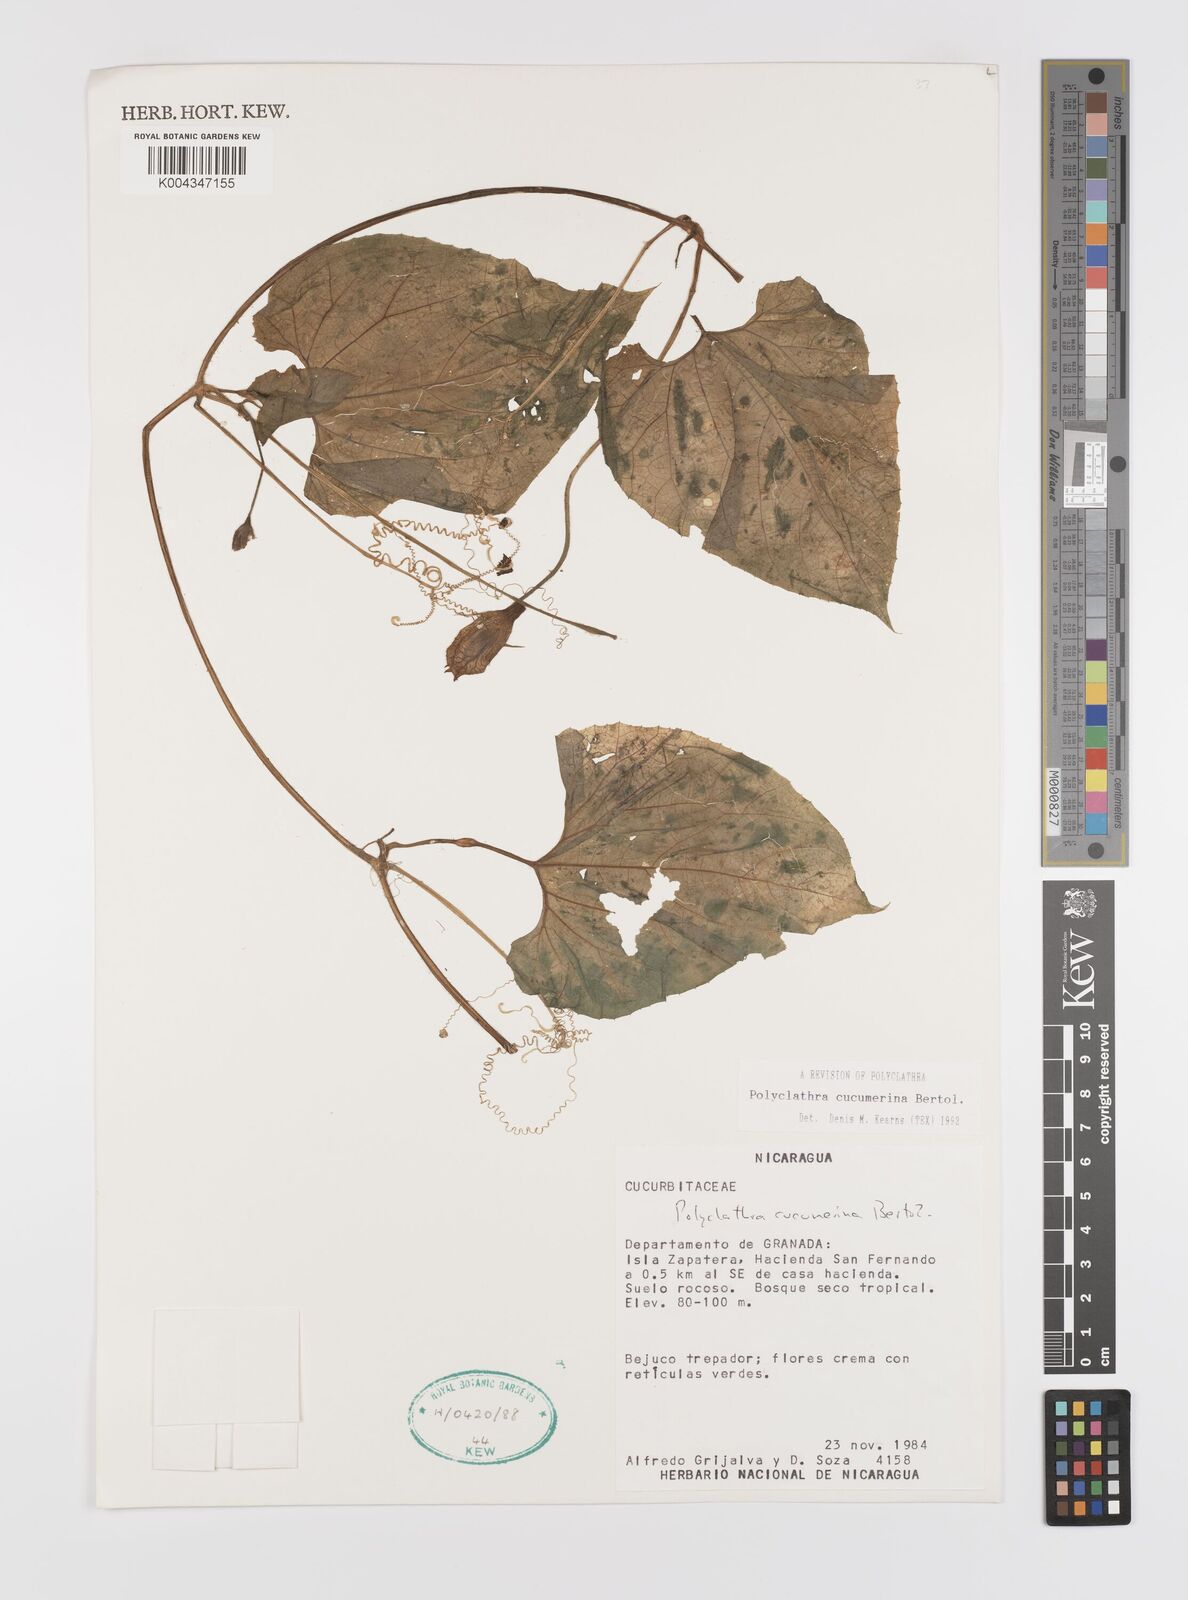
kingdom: Plantae
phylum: Tracheophyta
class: Magnoliopsida
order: Cucurbitales
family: Cucurbitaceae
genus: Polyclathra
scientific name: Polyclathra cucumerina
